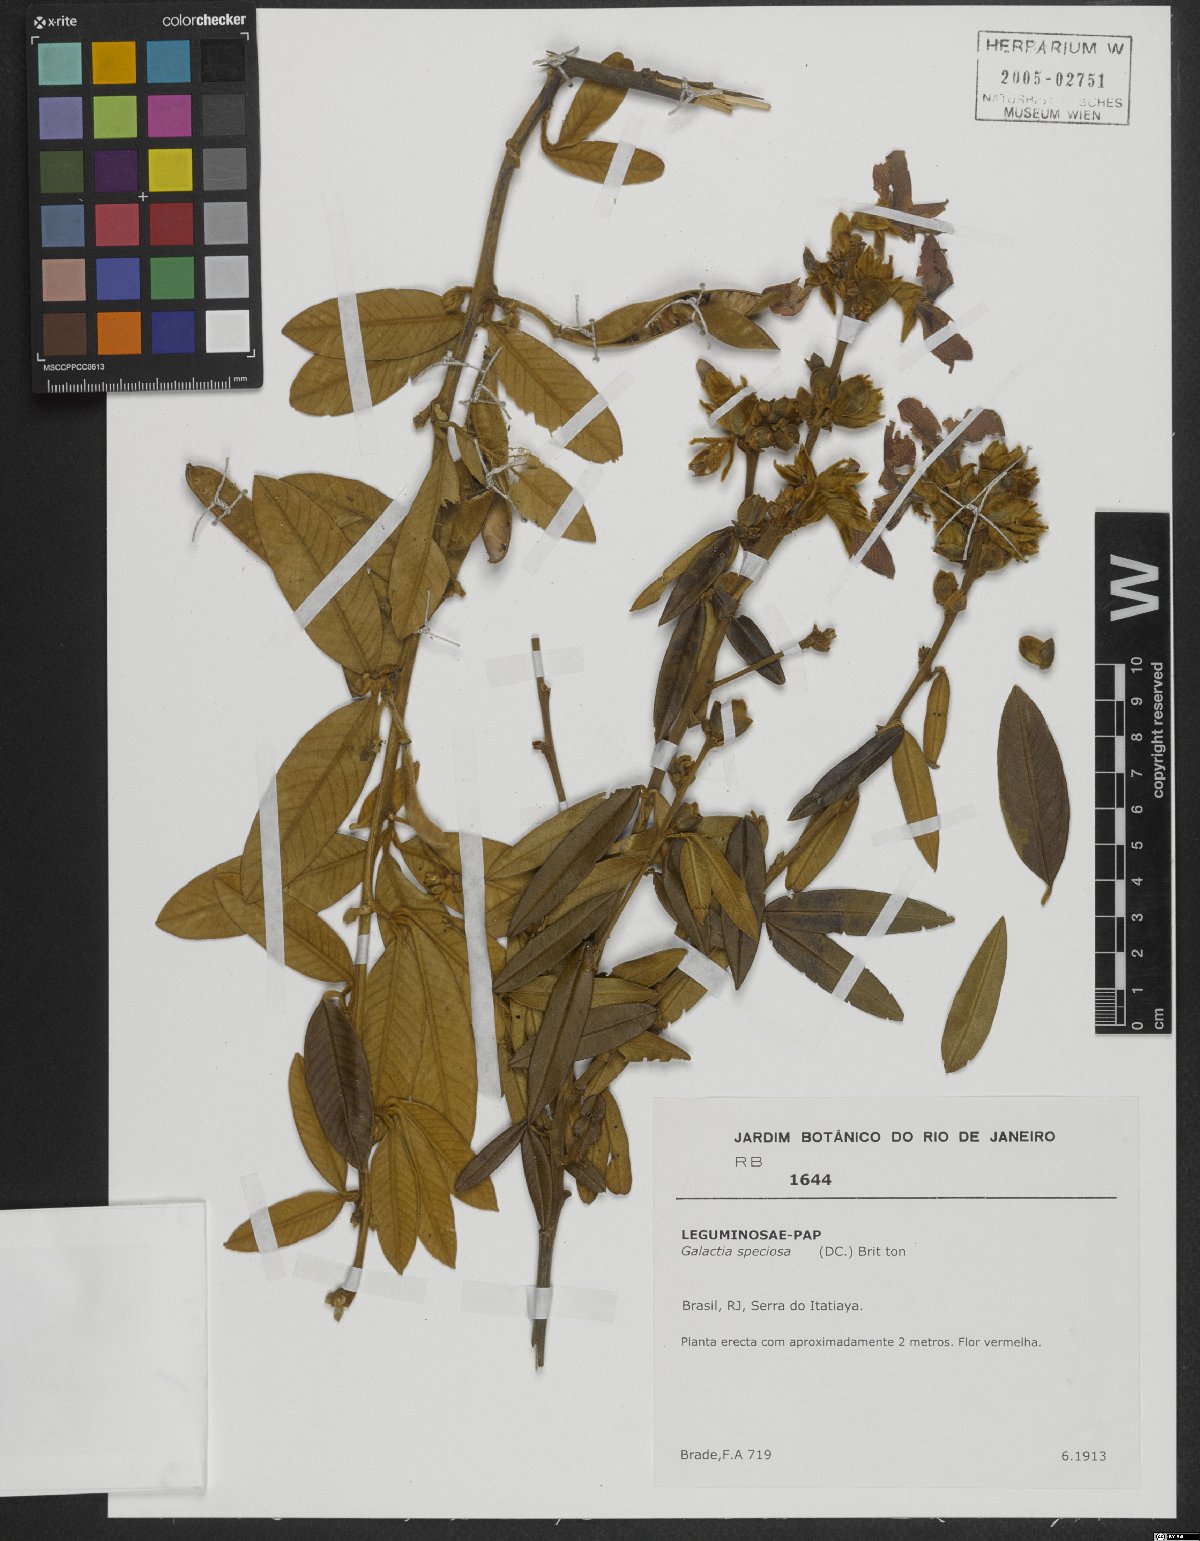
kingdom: Plantae
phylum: Tracheophyta
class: Magnoliopsida
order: Fabales
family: Fabaceae
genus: Collaea
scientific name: Collaea speciosa
